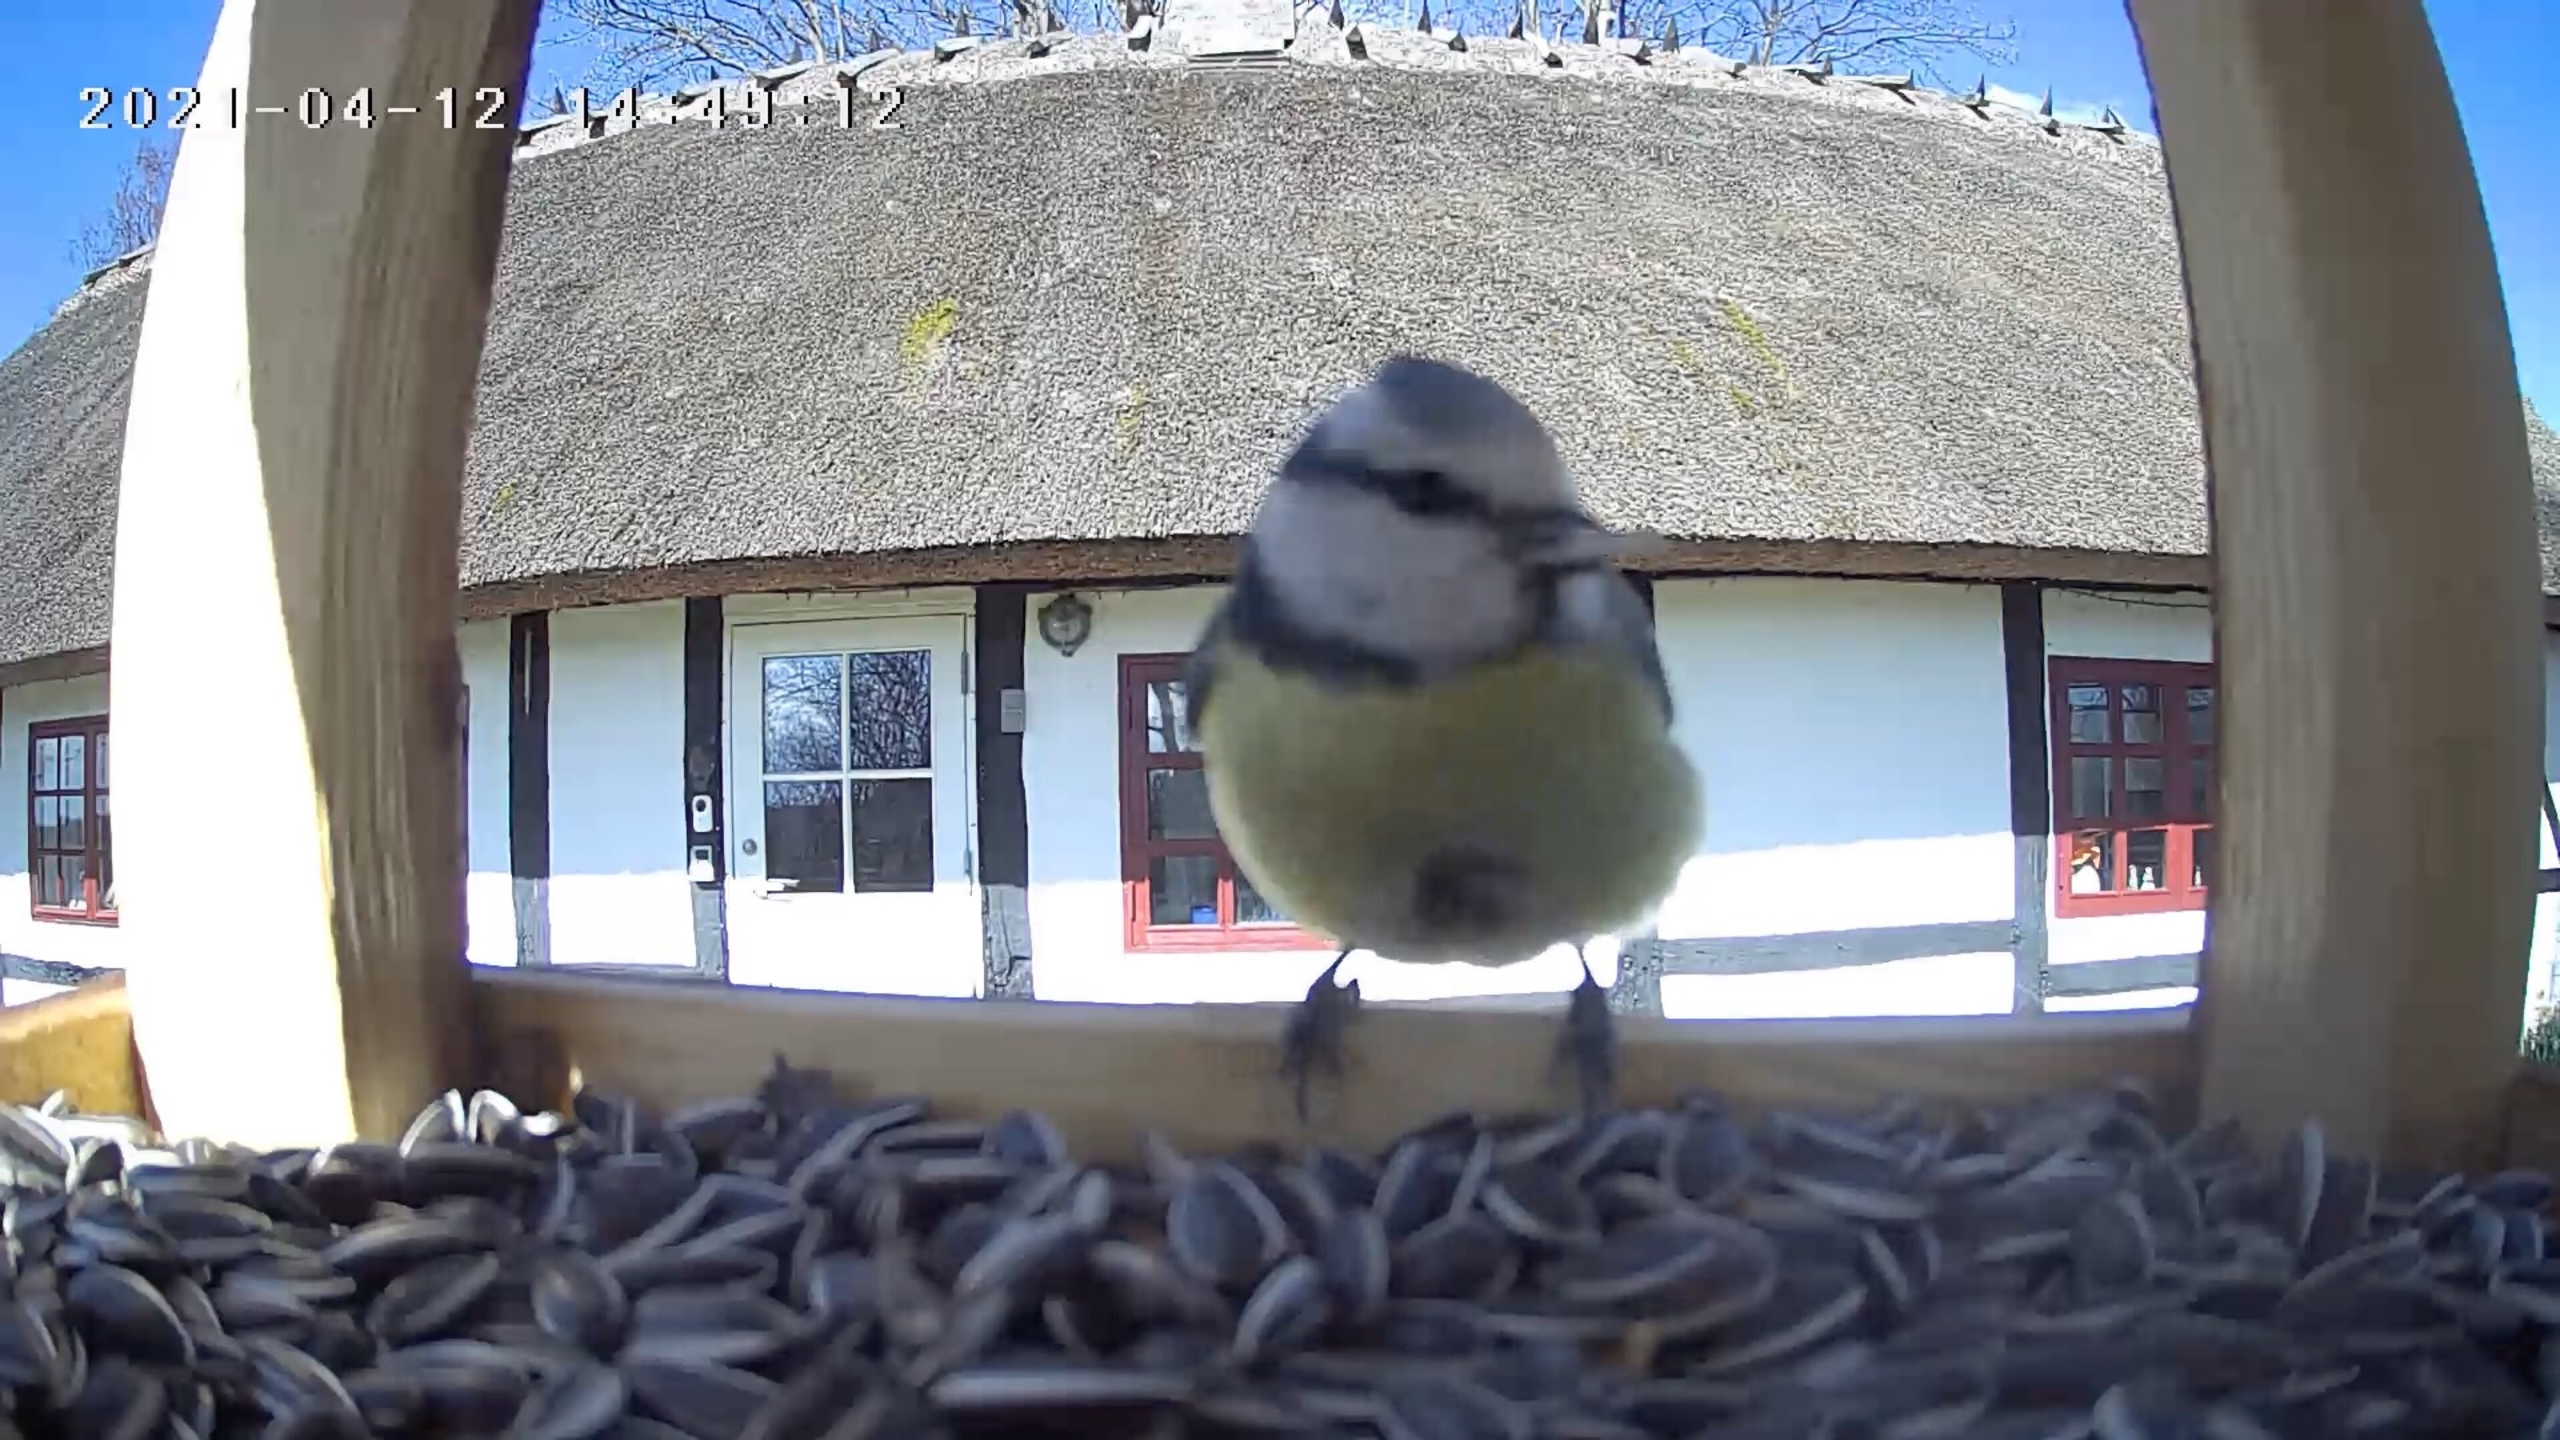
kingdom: Animalia
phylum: Chordata
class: Aves
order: Passeriformes
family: Paridae
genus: Cyanistes
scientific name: Cyanistes caeruleus
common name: Blåmejse
